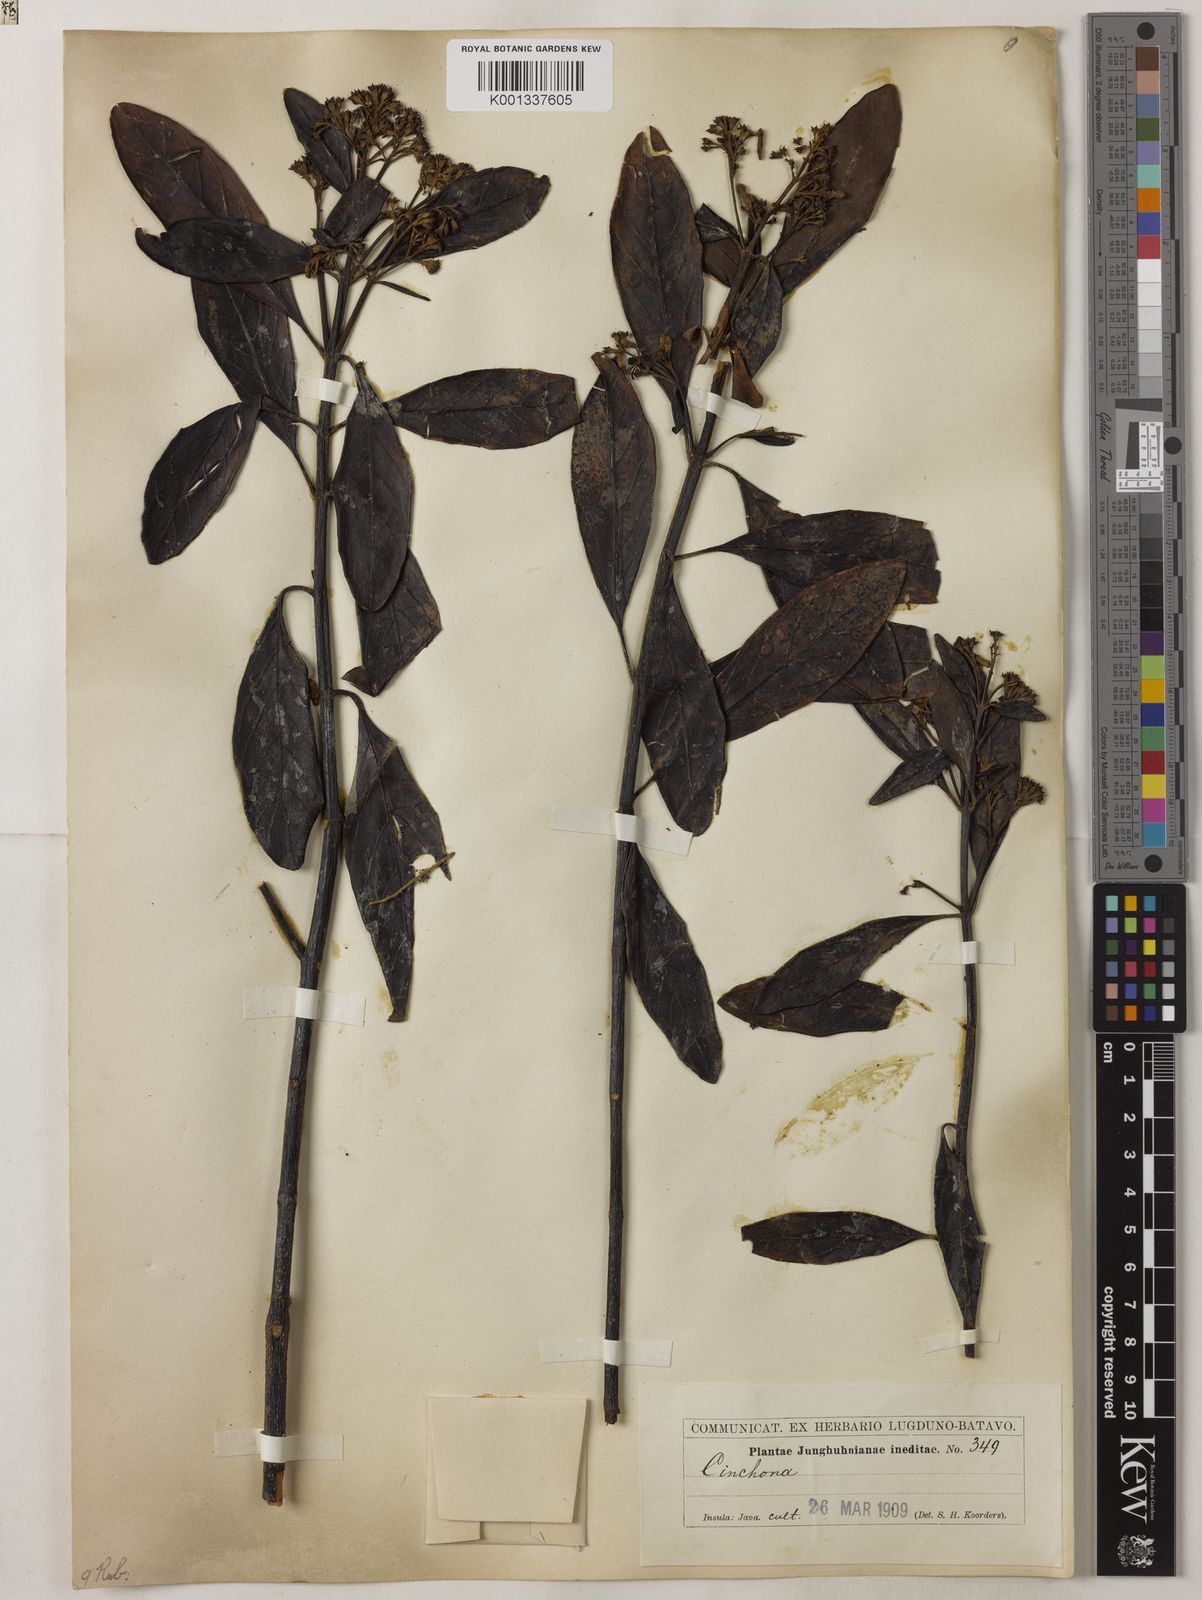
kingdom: Plantae
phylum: Tracheophyta
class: Magnoliopsida
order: Gentianales
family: Rubiaceae
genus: Cinchona
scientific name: Cinchona
